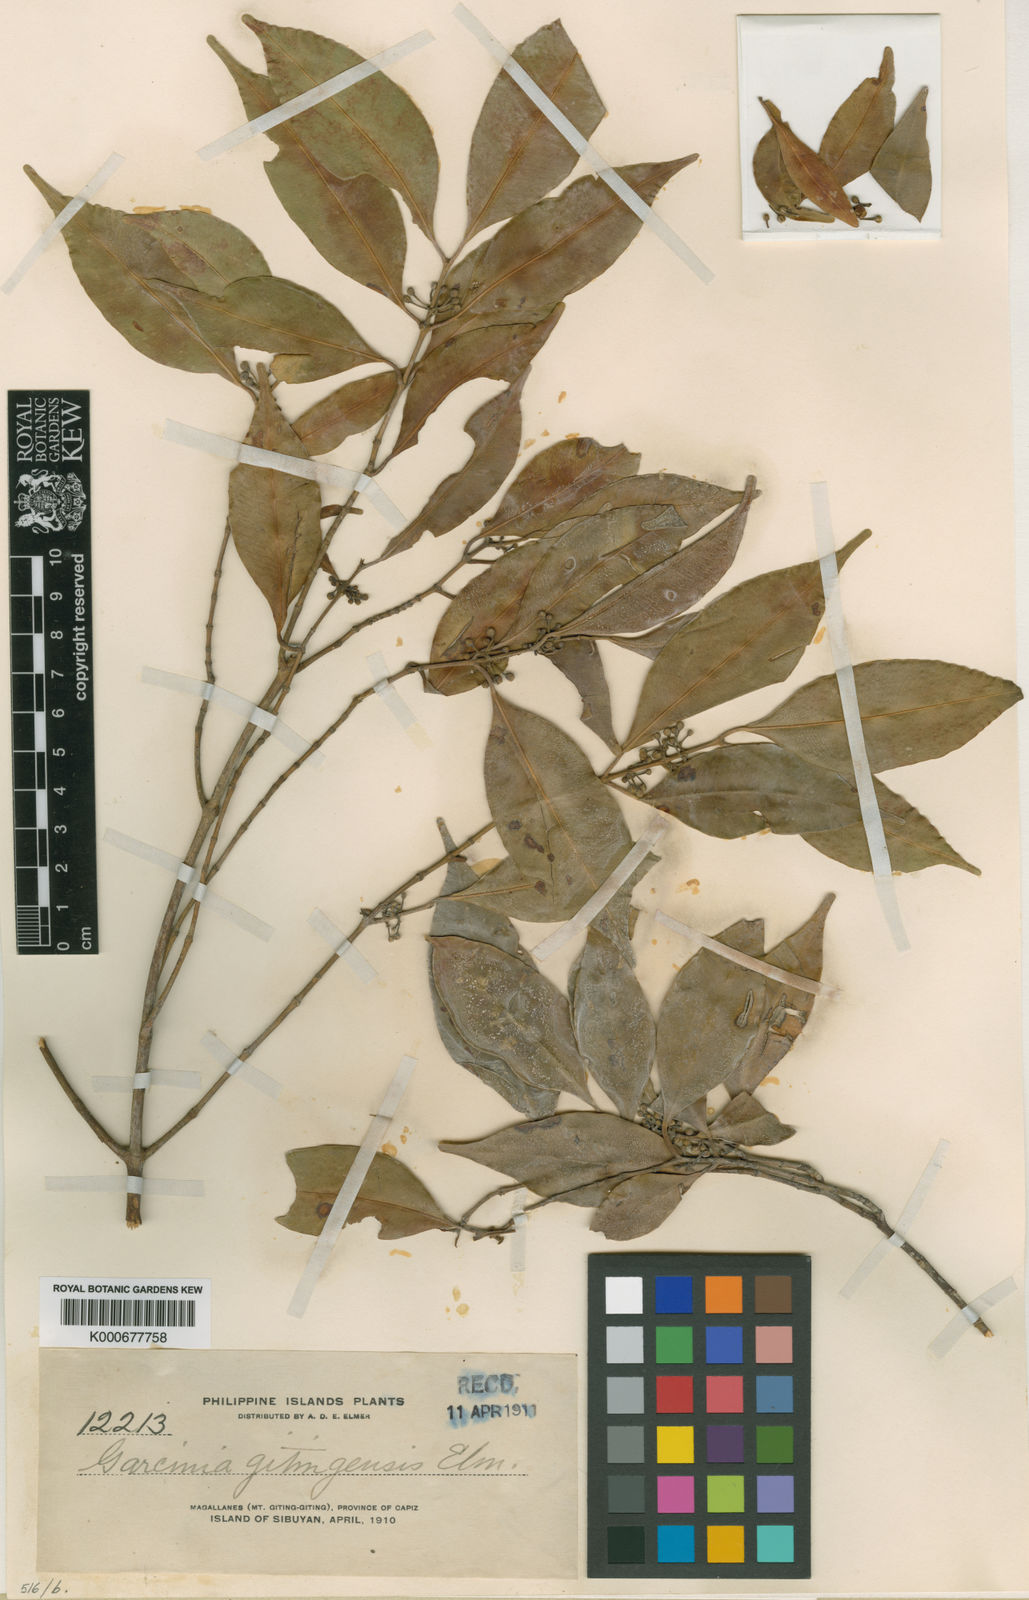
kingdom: Plantae
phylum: Tracheophyta
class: Magnoliopsida
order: Malpighiales
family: Clusiaceae
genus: Garcinia
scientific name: Garcinia brevirostris
